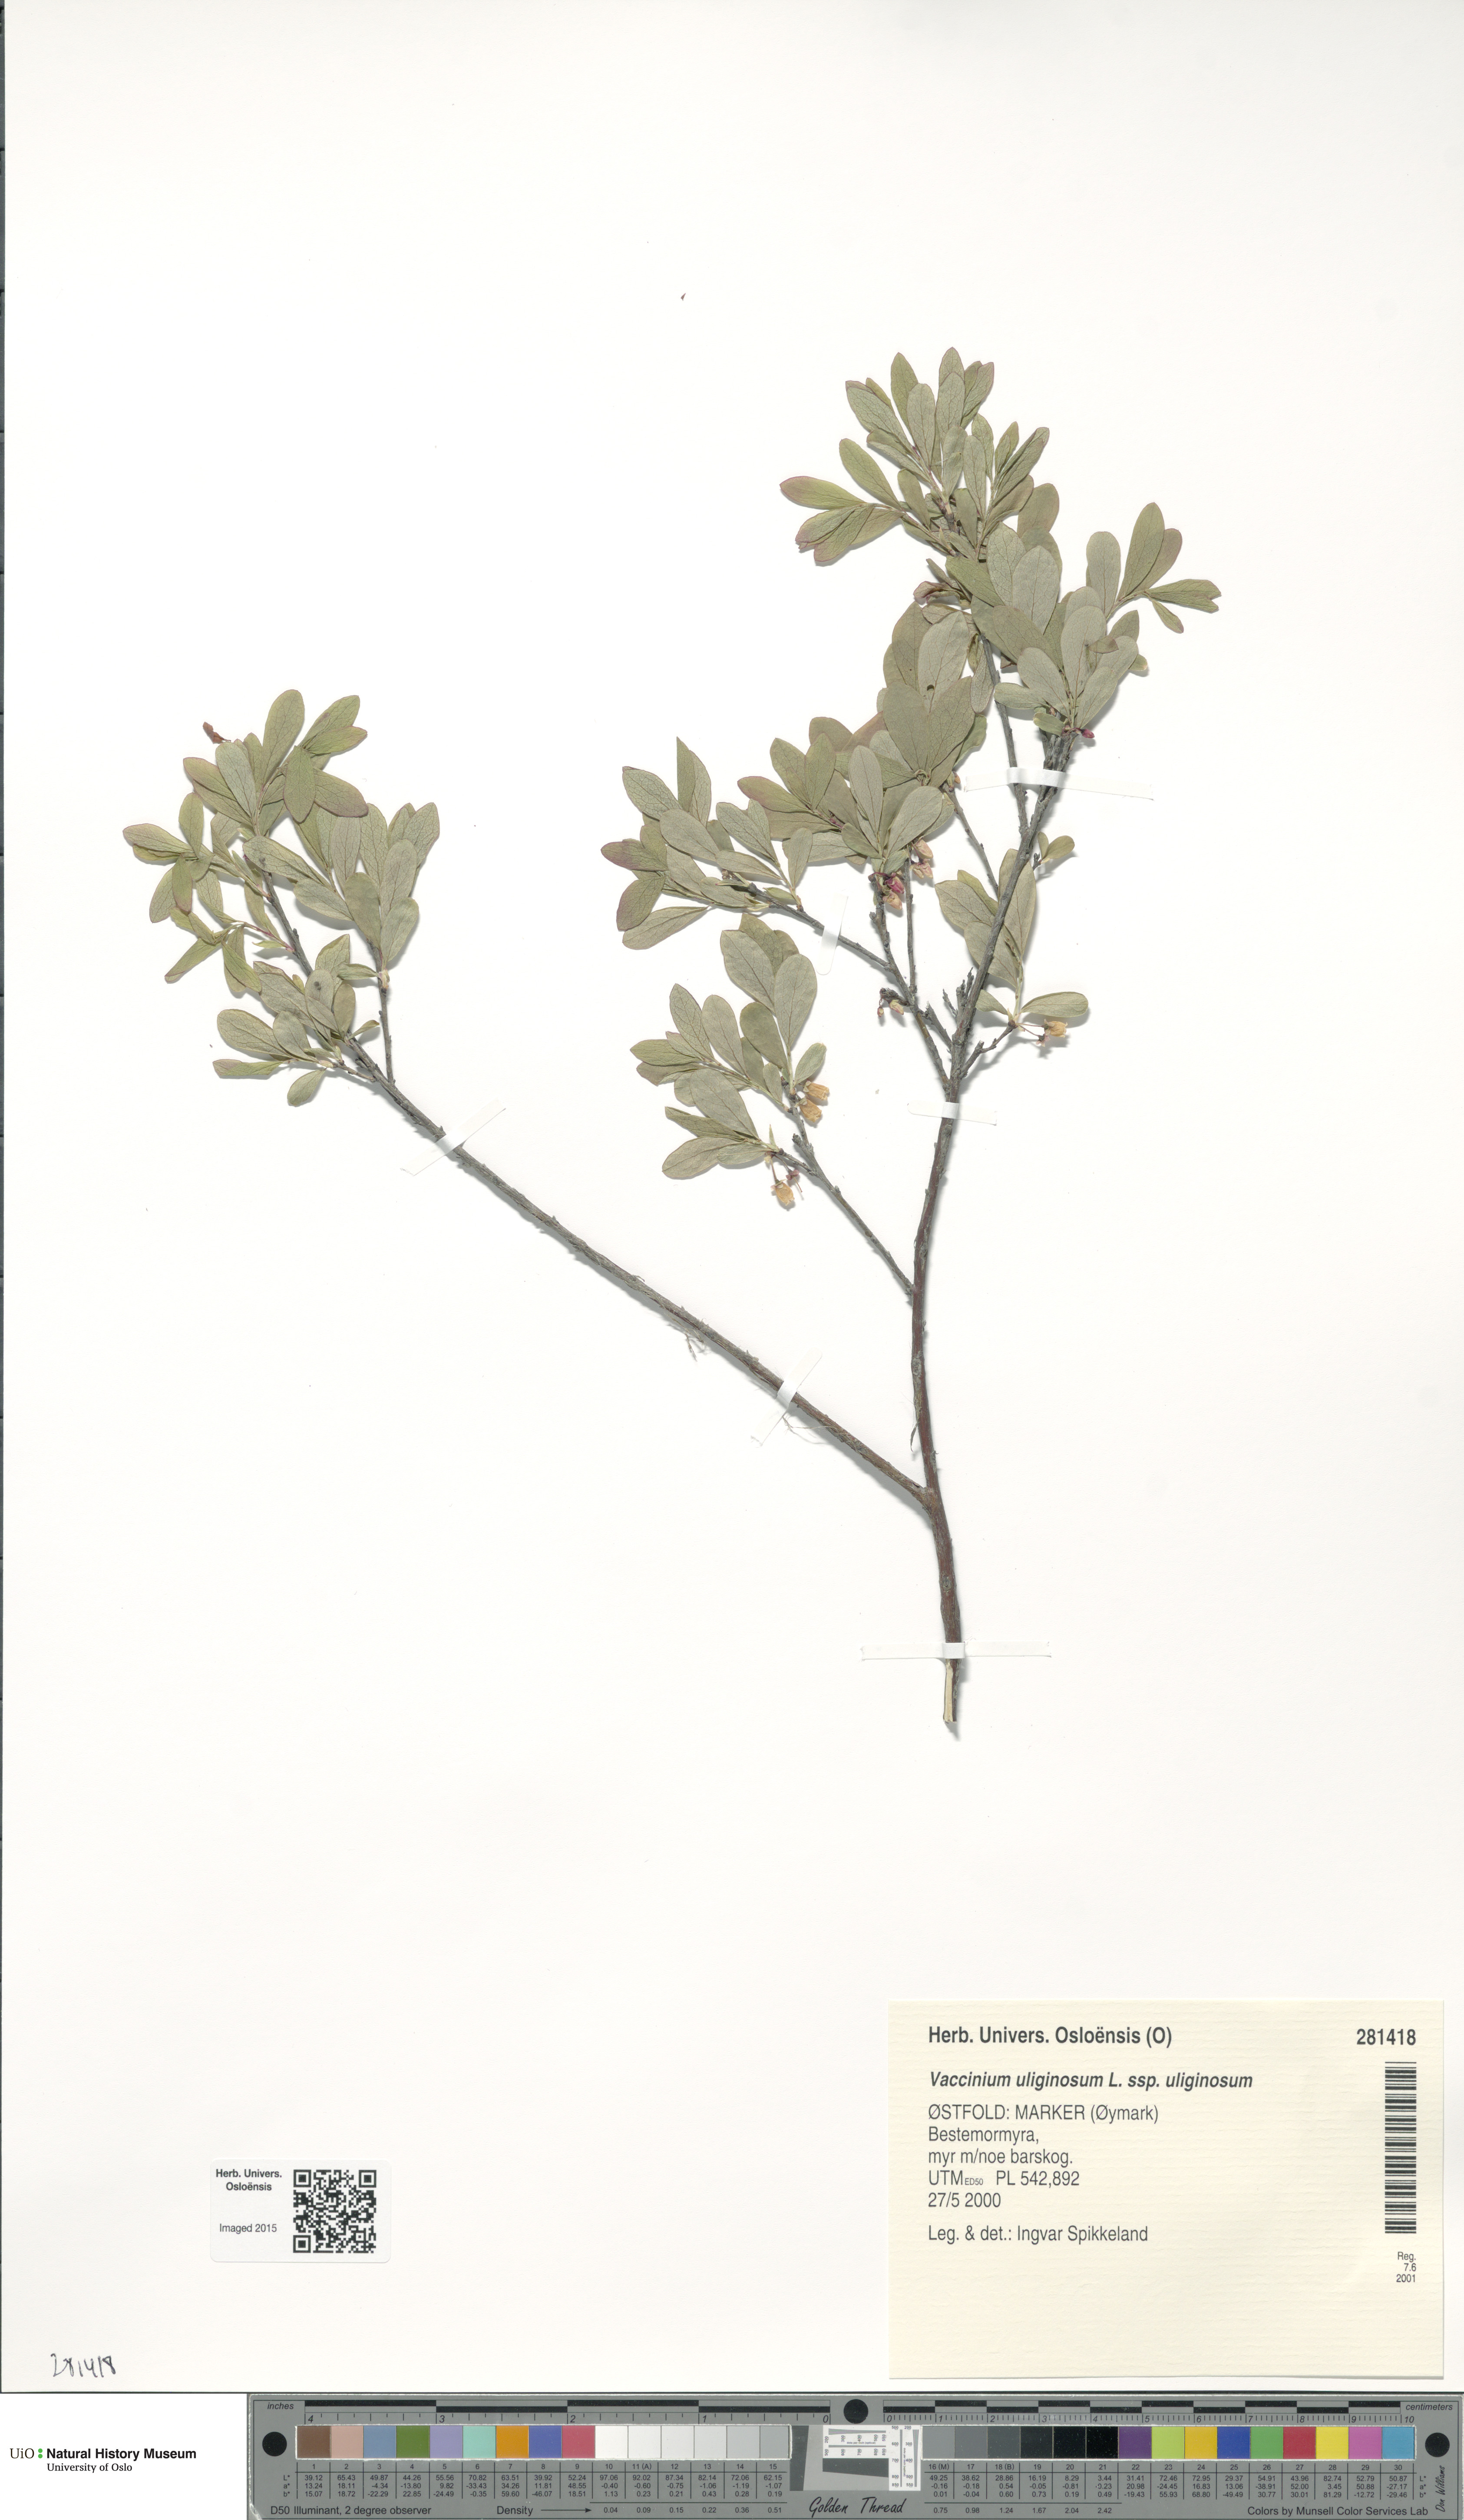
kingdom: Plantae
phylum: Tracheophyta
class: Magnoliopsida
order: Ericales
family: Ericaceae
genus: Vaccinium
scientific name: Vaccinium uliginosum
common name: Bog bilberry
